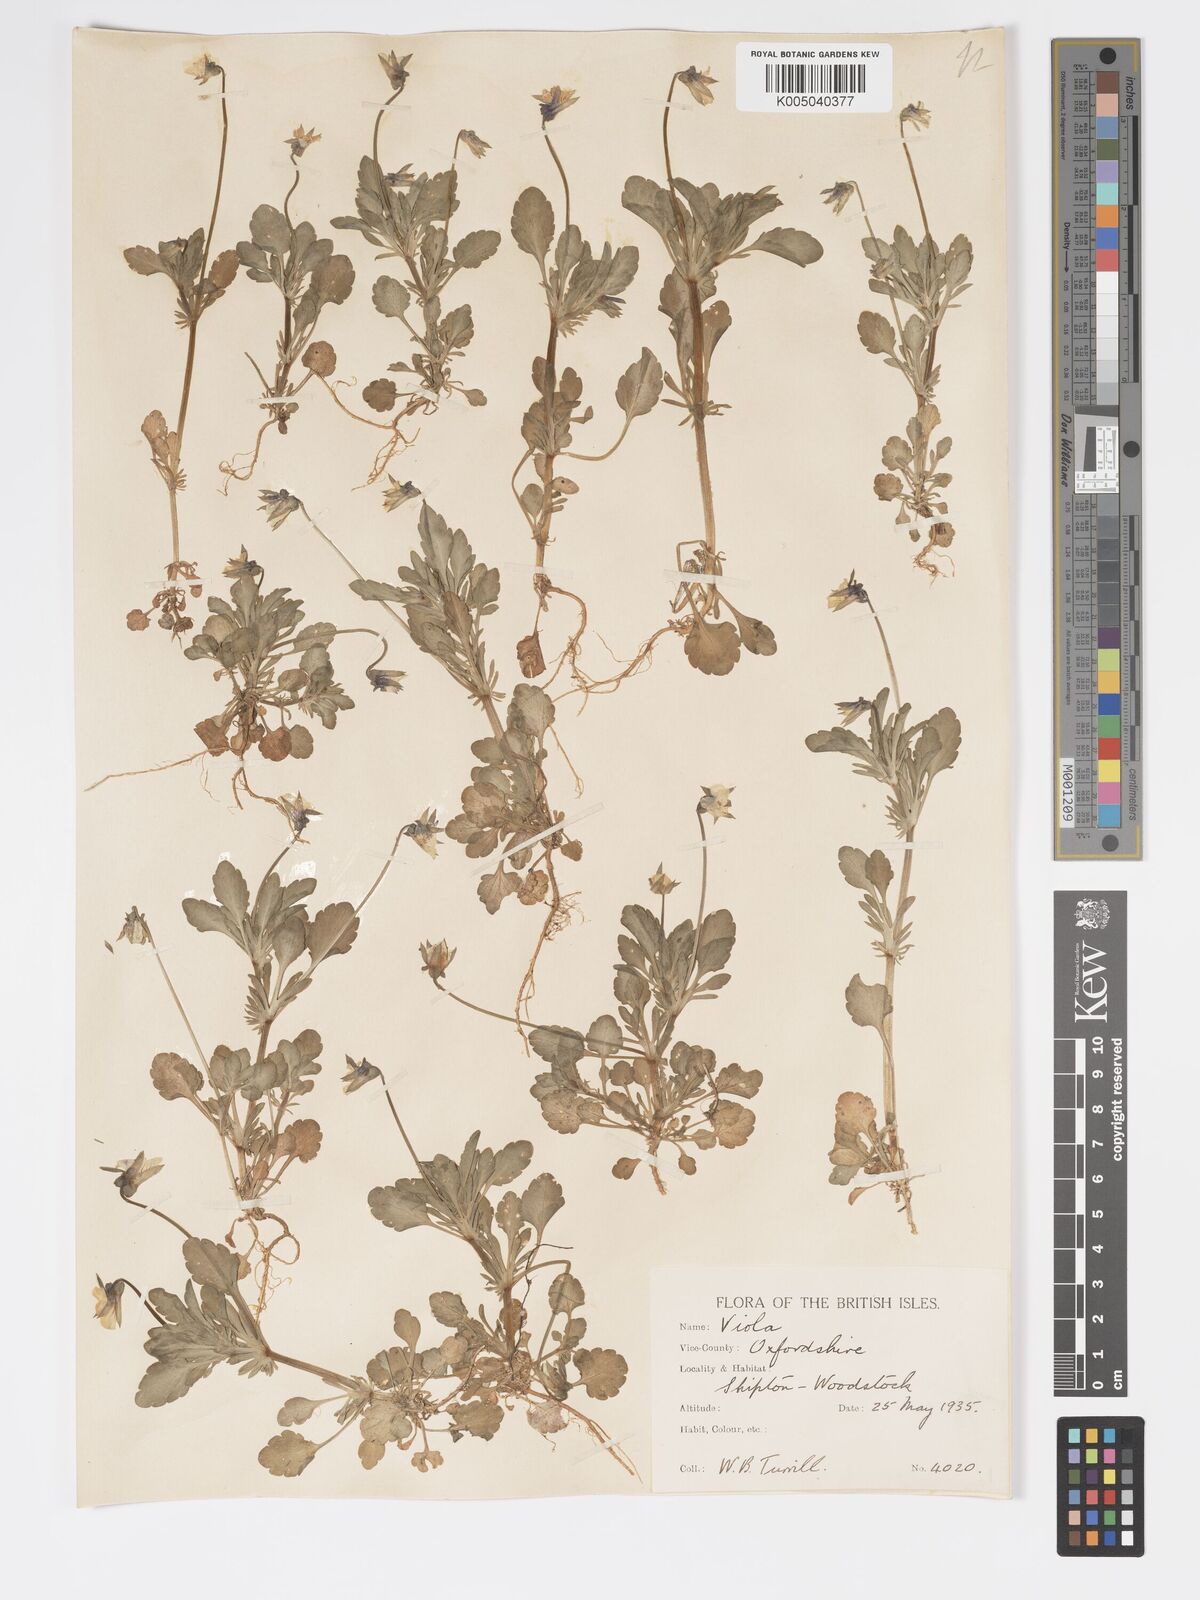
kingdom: Plantae
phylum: Tracheophyta
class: Magnoliopsida
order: Malpighiales
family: Violaceae
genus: Viola
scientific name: Viola arvensis
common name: Field pansy
